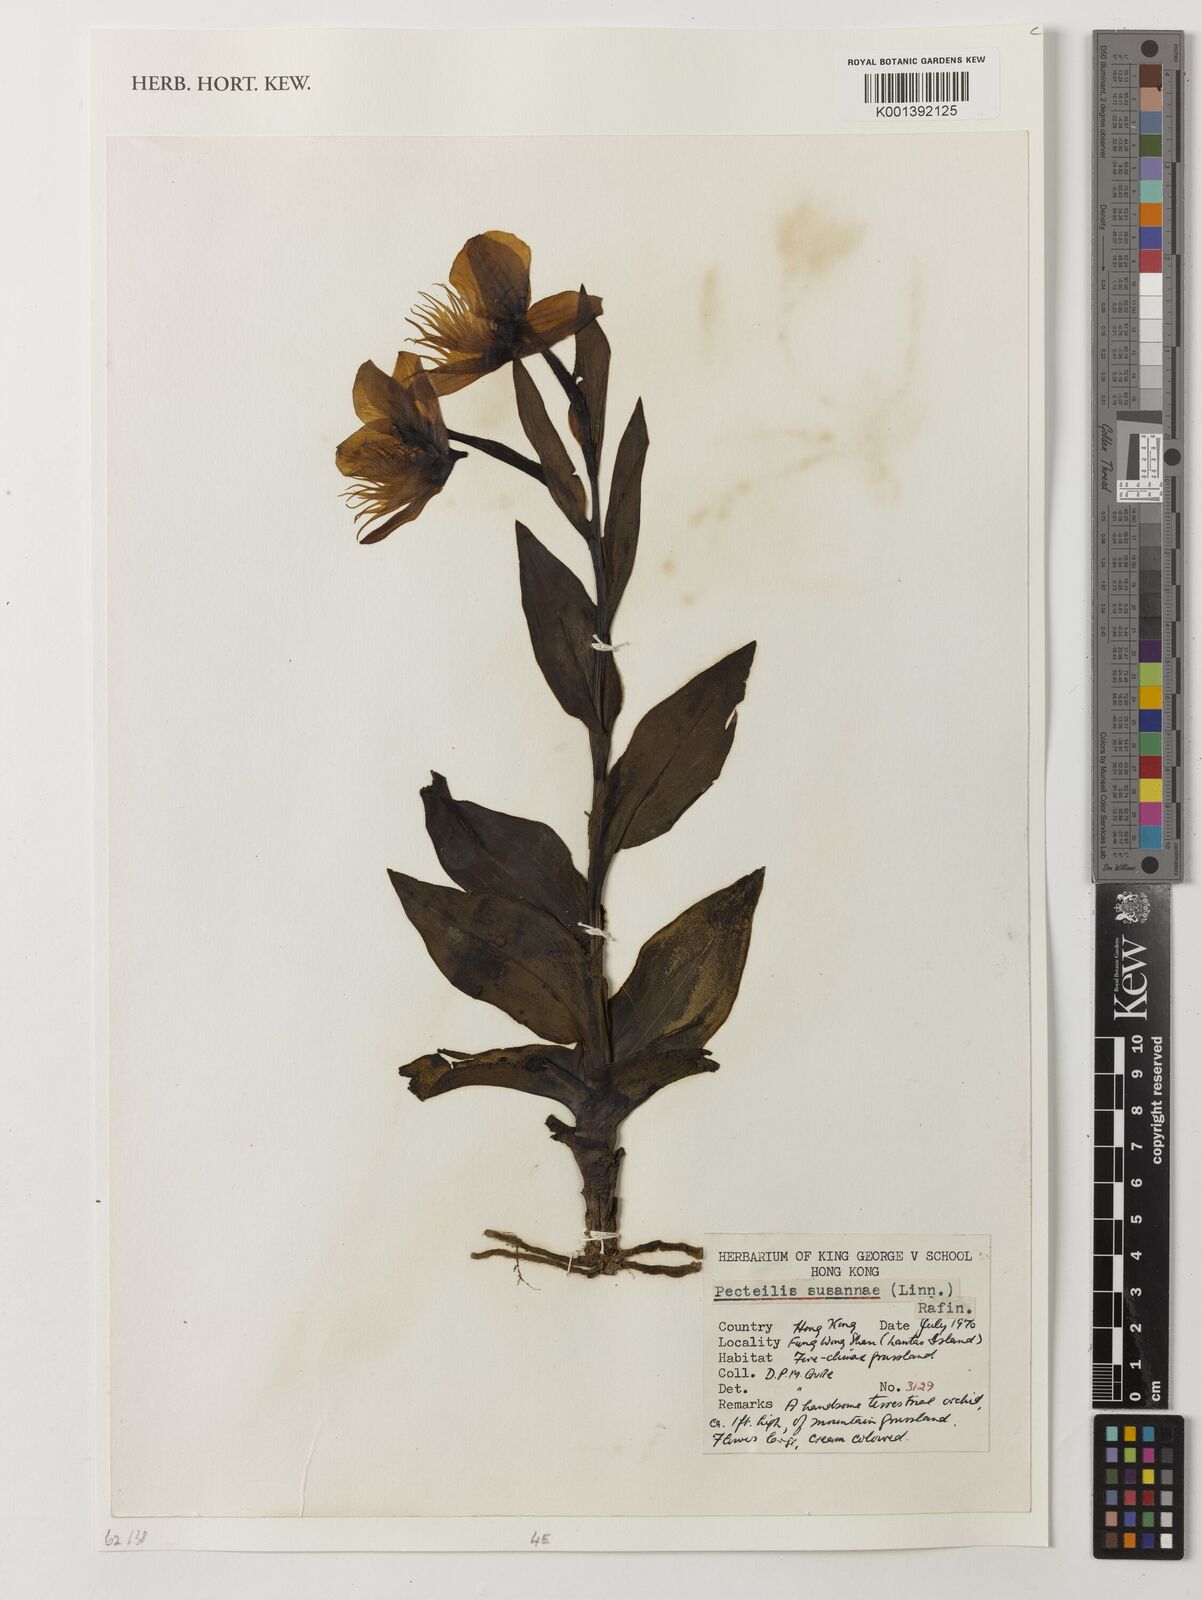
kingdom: Plantae
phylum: Tracheophyta
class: Liliopsida
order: Asparagales
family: Orchidaceae
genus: Pecteilis
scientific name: Pecteilis
